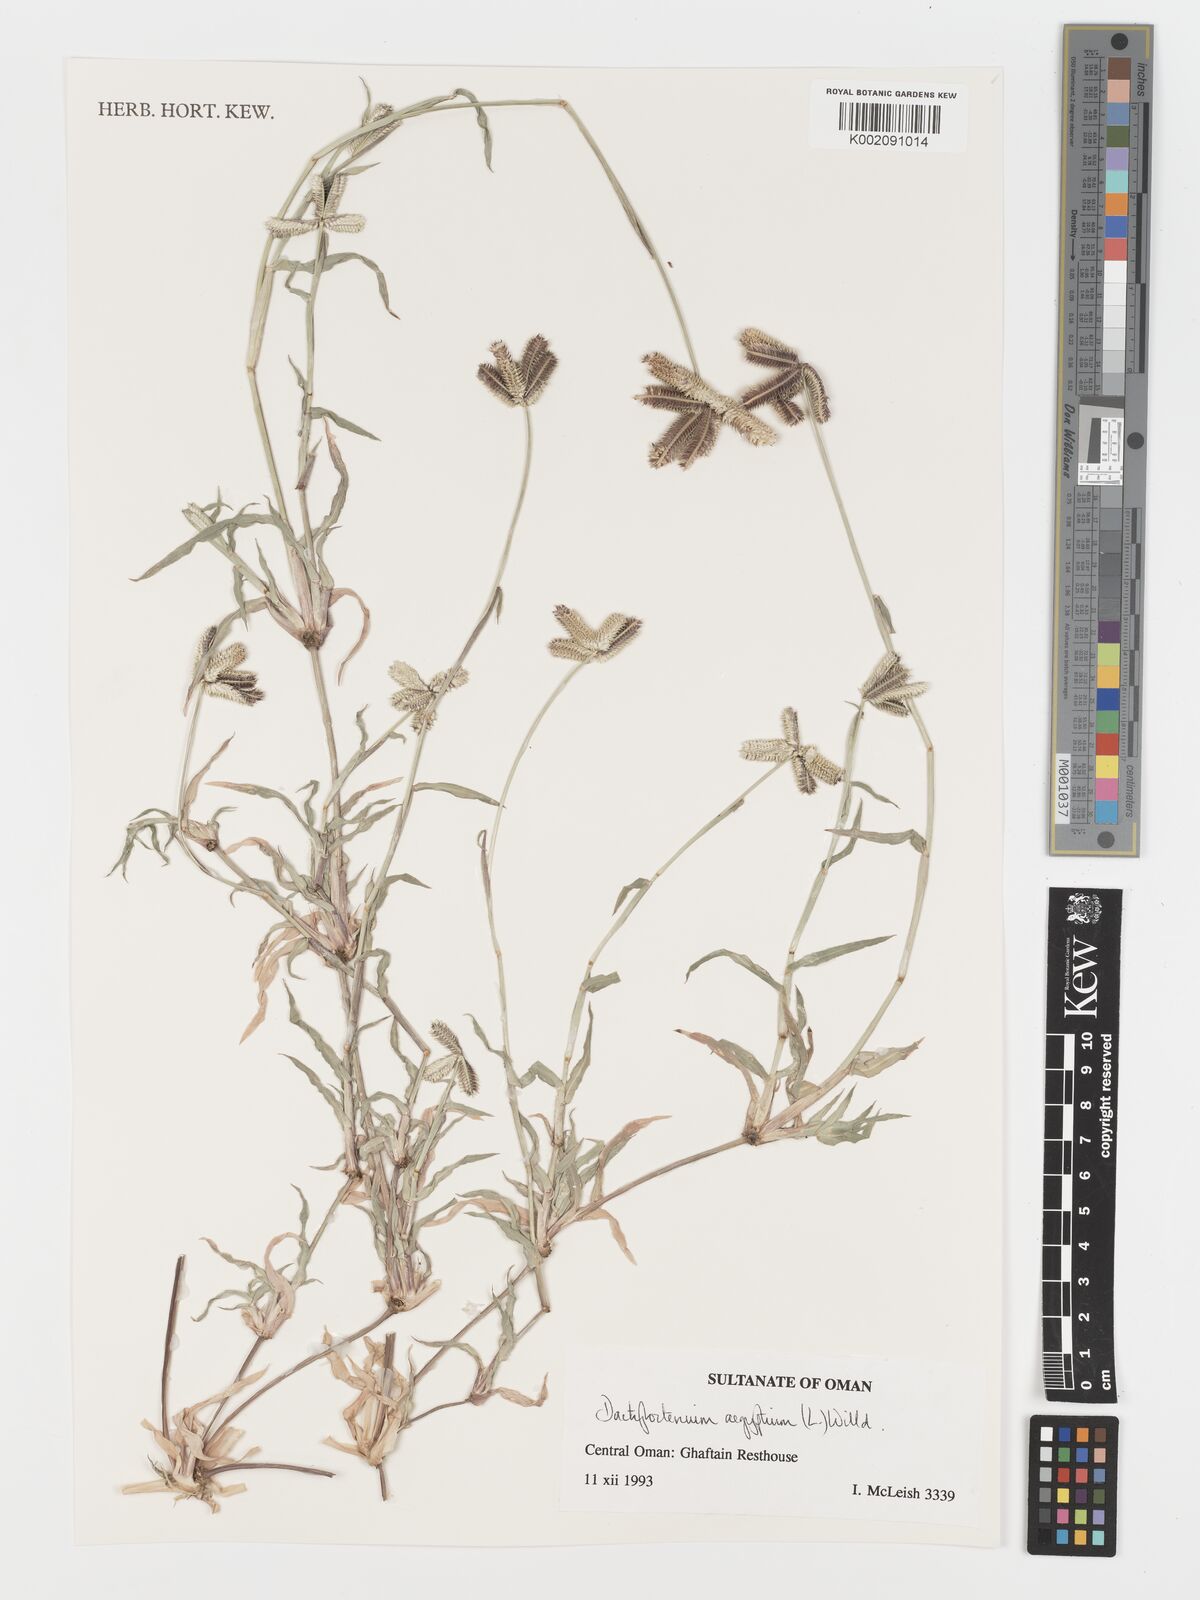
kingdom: Plantae
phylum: Tracheophyta
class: Liliopsida
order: Poales
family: Poaceae
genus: Dactyloctenium
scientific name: Dactyloctenium aegyptium
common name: Egyptian grass
